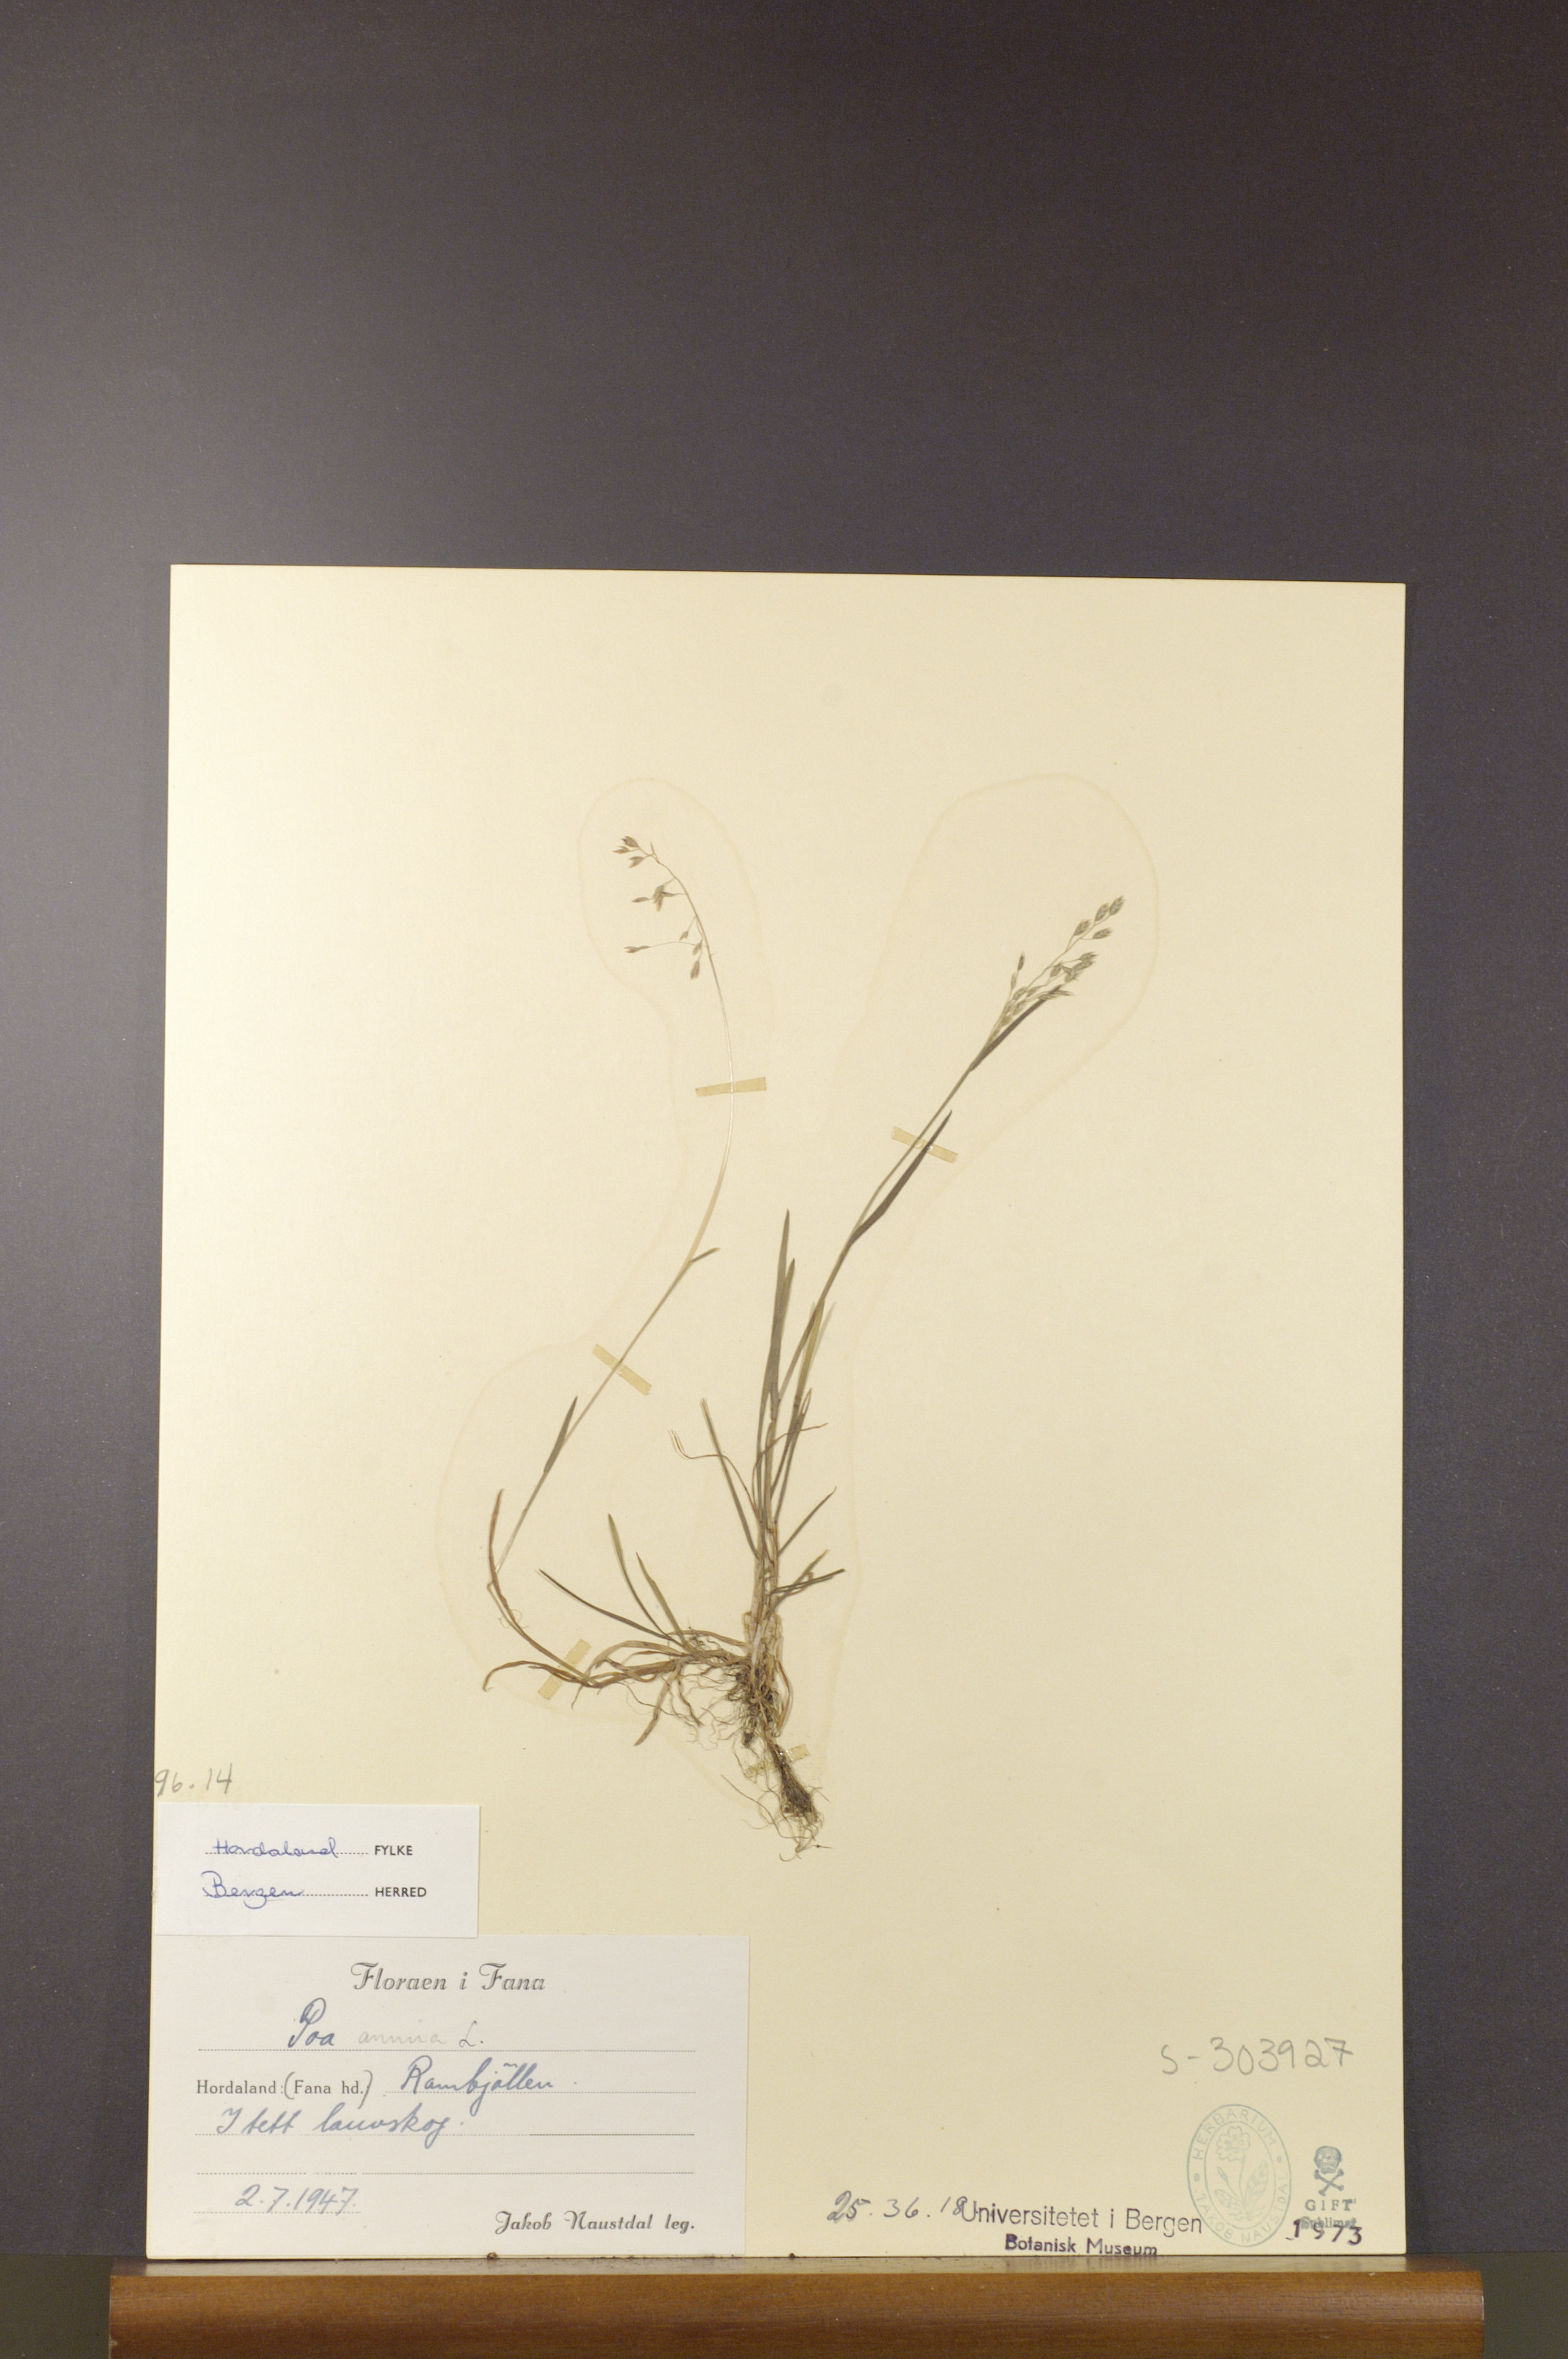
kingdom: Plantae
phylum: Tracheophyta
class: Liliopsida
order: Poales
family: Poaceae
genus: Poa
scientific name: Poa annua
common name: Annual bluegrass
